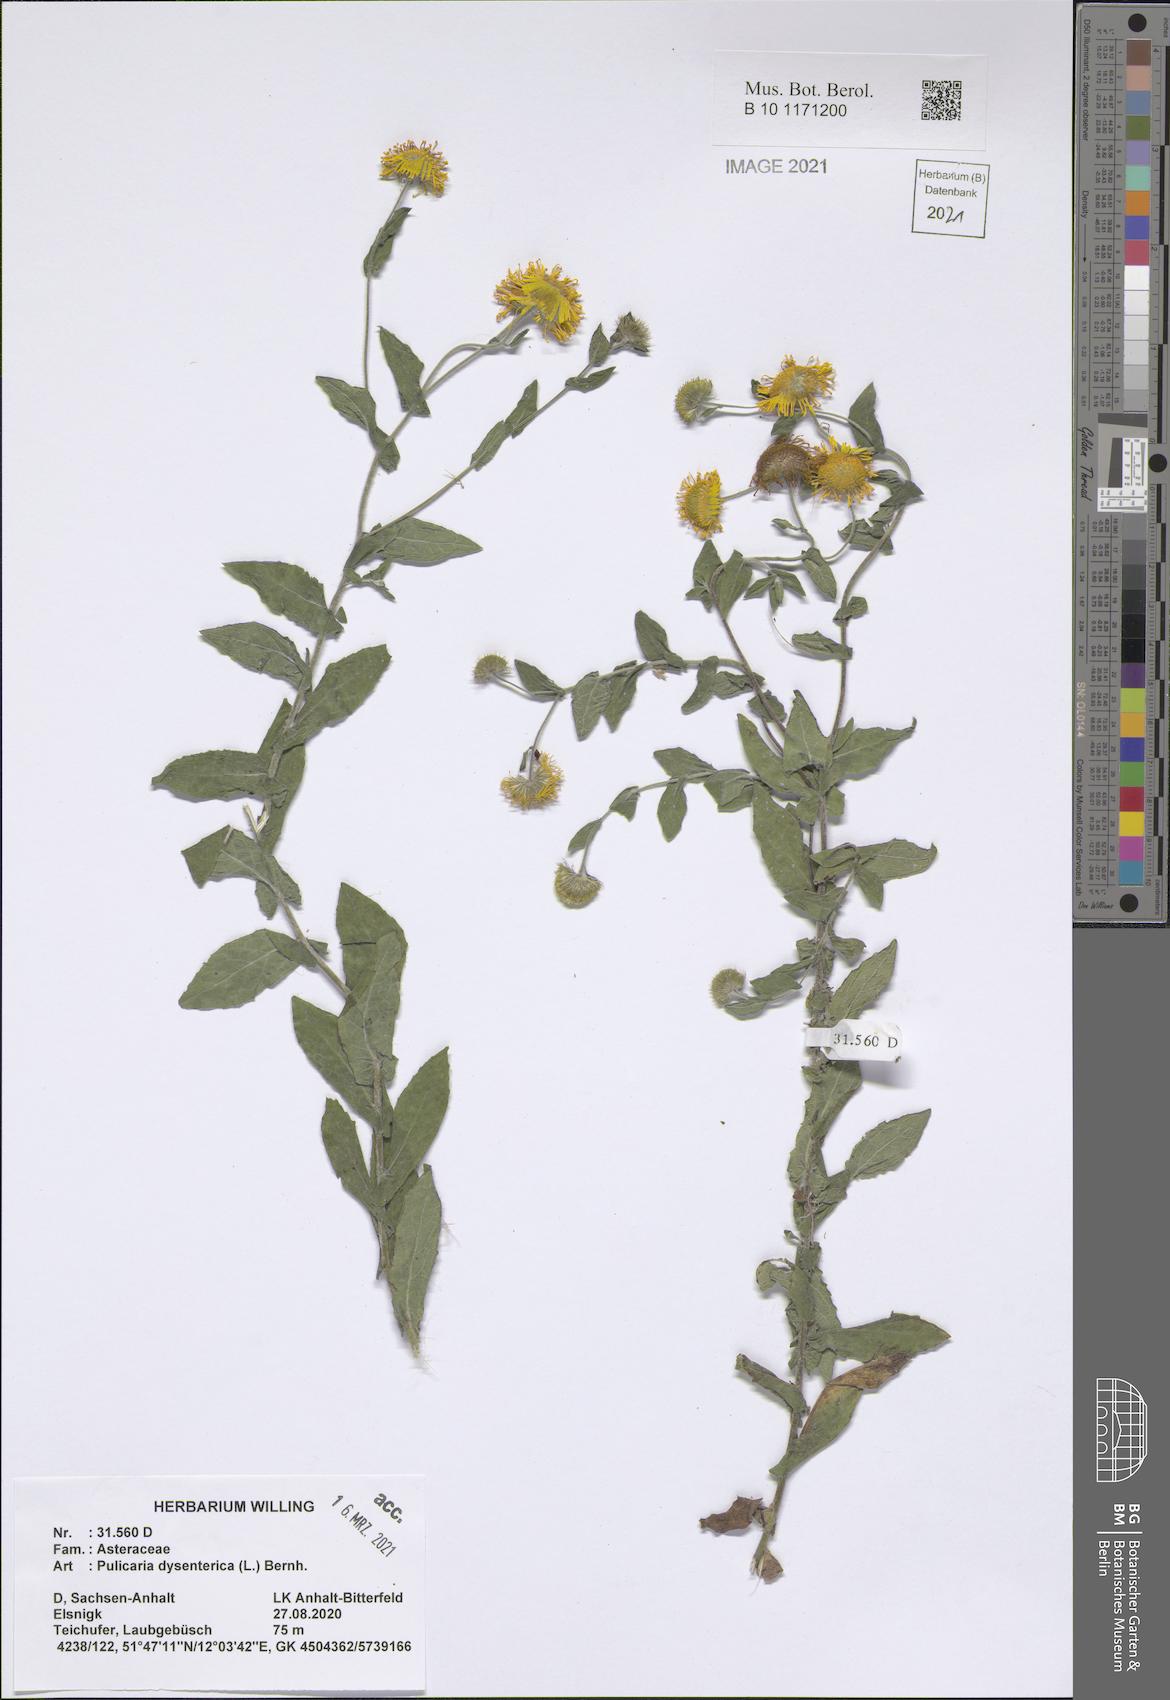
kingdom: Plantae
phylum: Tracheophyta
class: Magnoliopsida
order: Asterales
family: Asteraceae
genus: Pulicaria
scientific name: Pulicaria dysenterica
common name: Common fleabane
